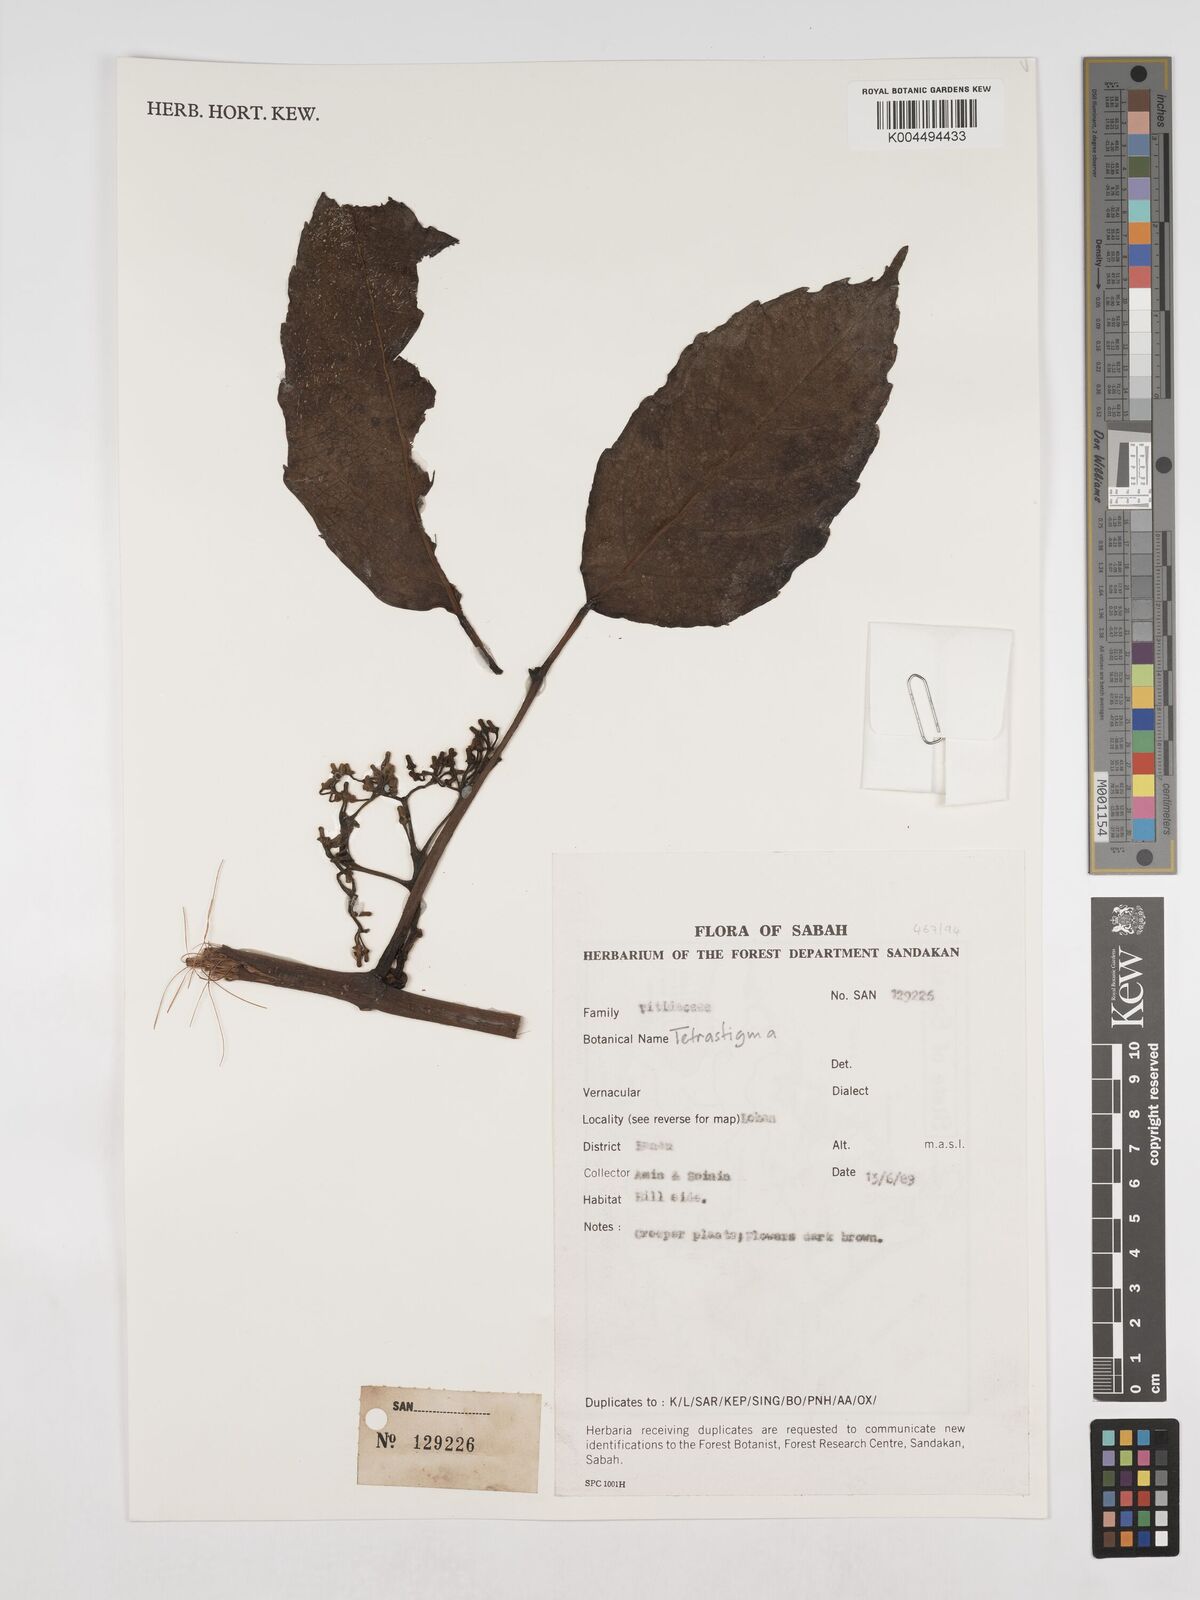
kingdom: Plantae
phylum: Tracheophyta
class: Magnoliopsida
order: Vitales
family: Vitaceae
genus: Tetrastigma
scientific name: Tetrastigma
